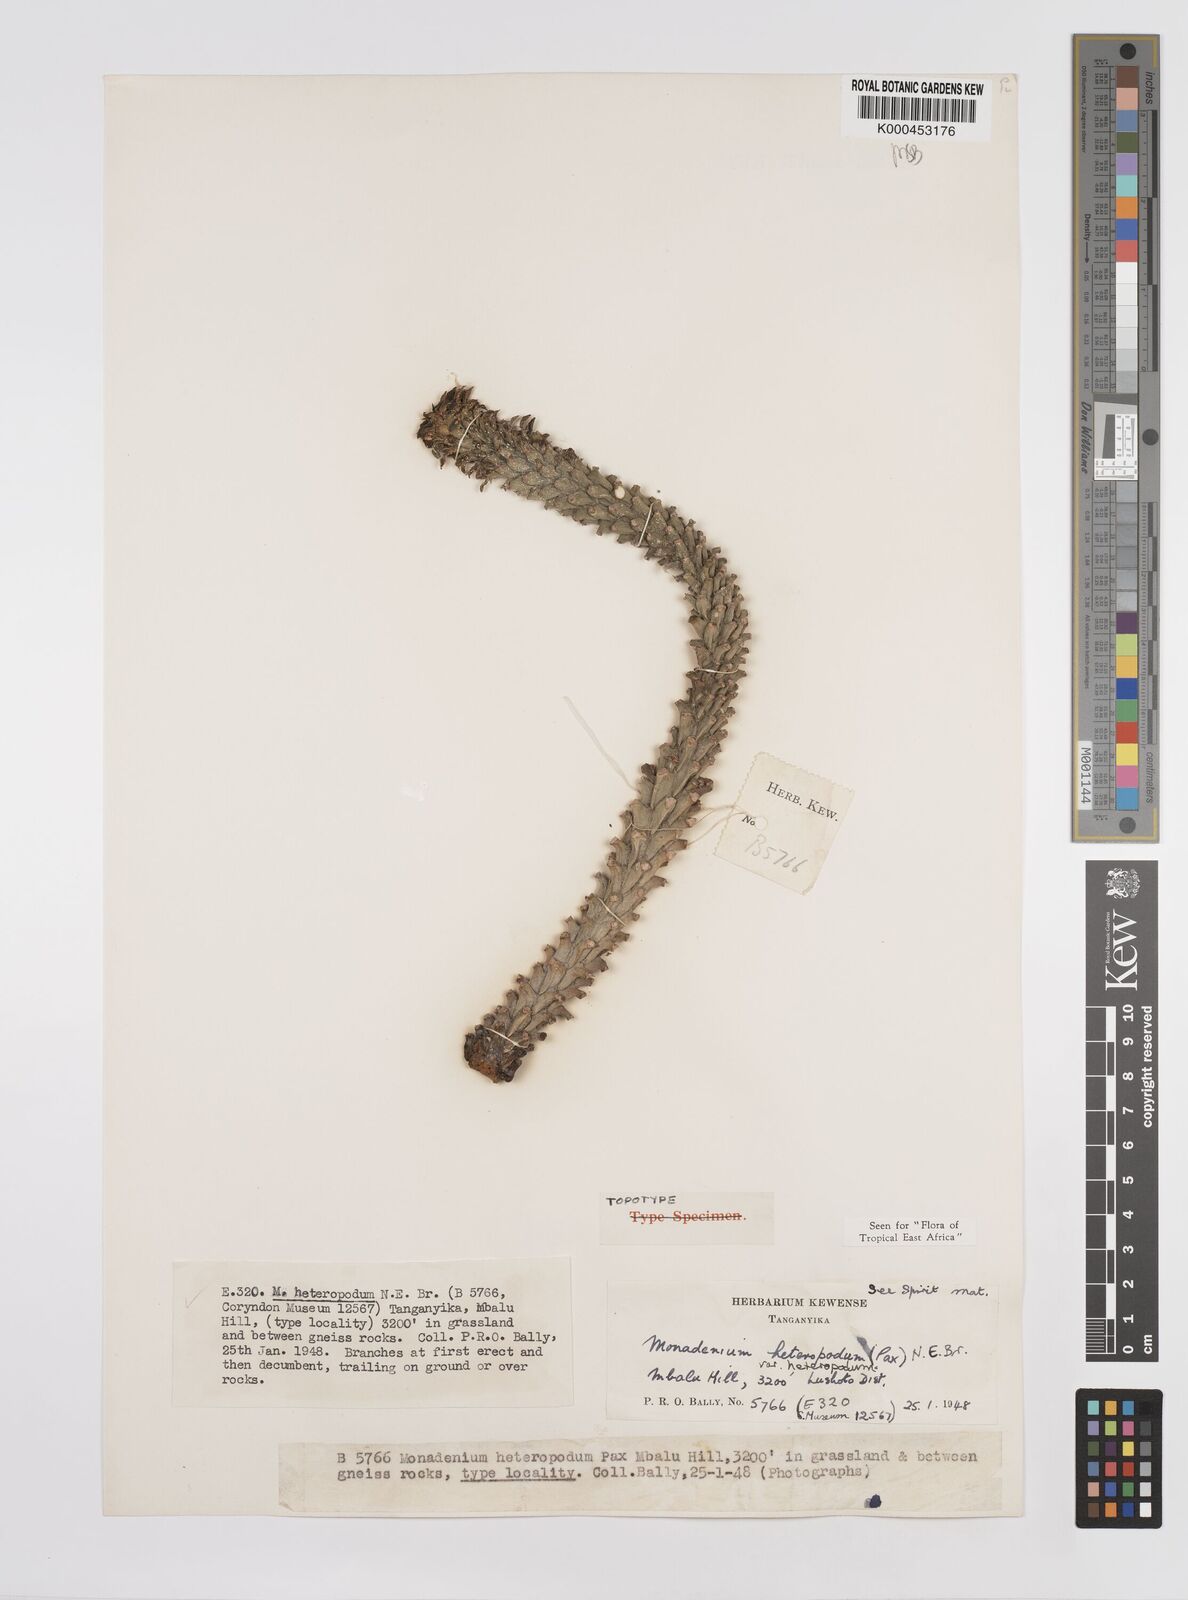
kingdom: Plantae
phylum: Tracheophyta
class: Magnoliopsida
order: Malpighiales
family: Euphorbiaceae
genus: Euphorbia
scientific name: Euphorbia heteropodum
